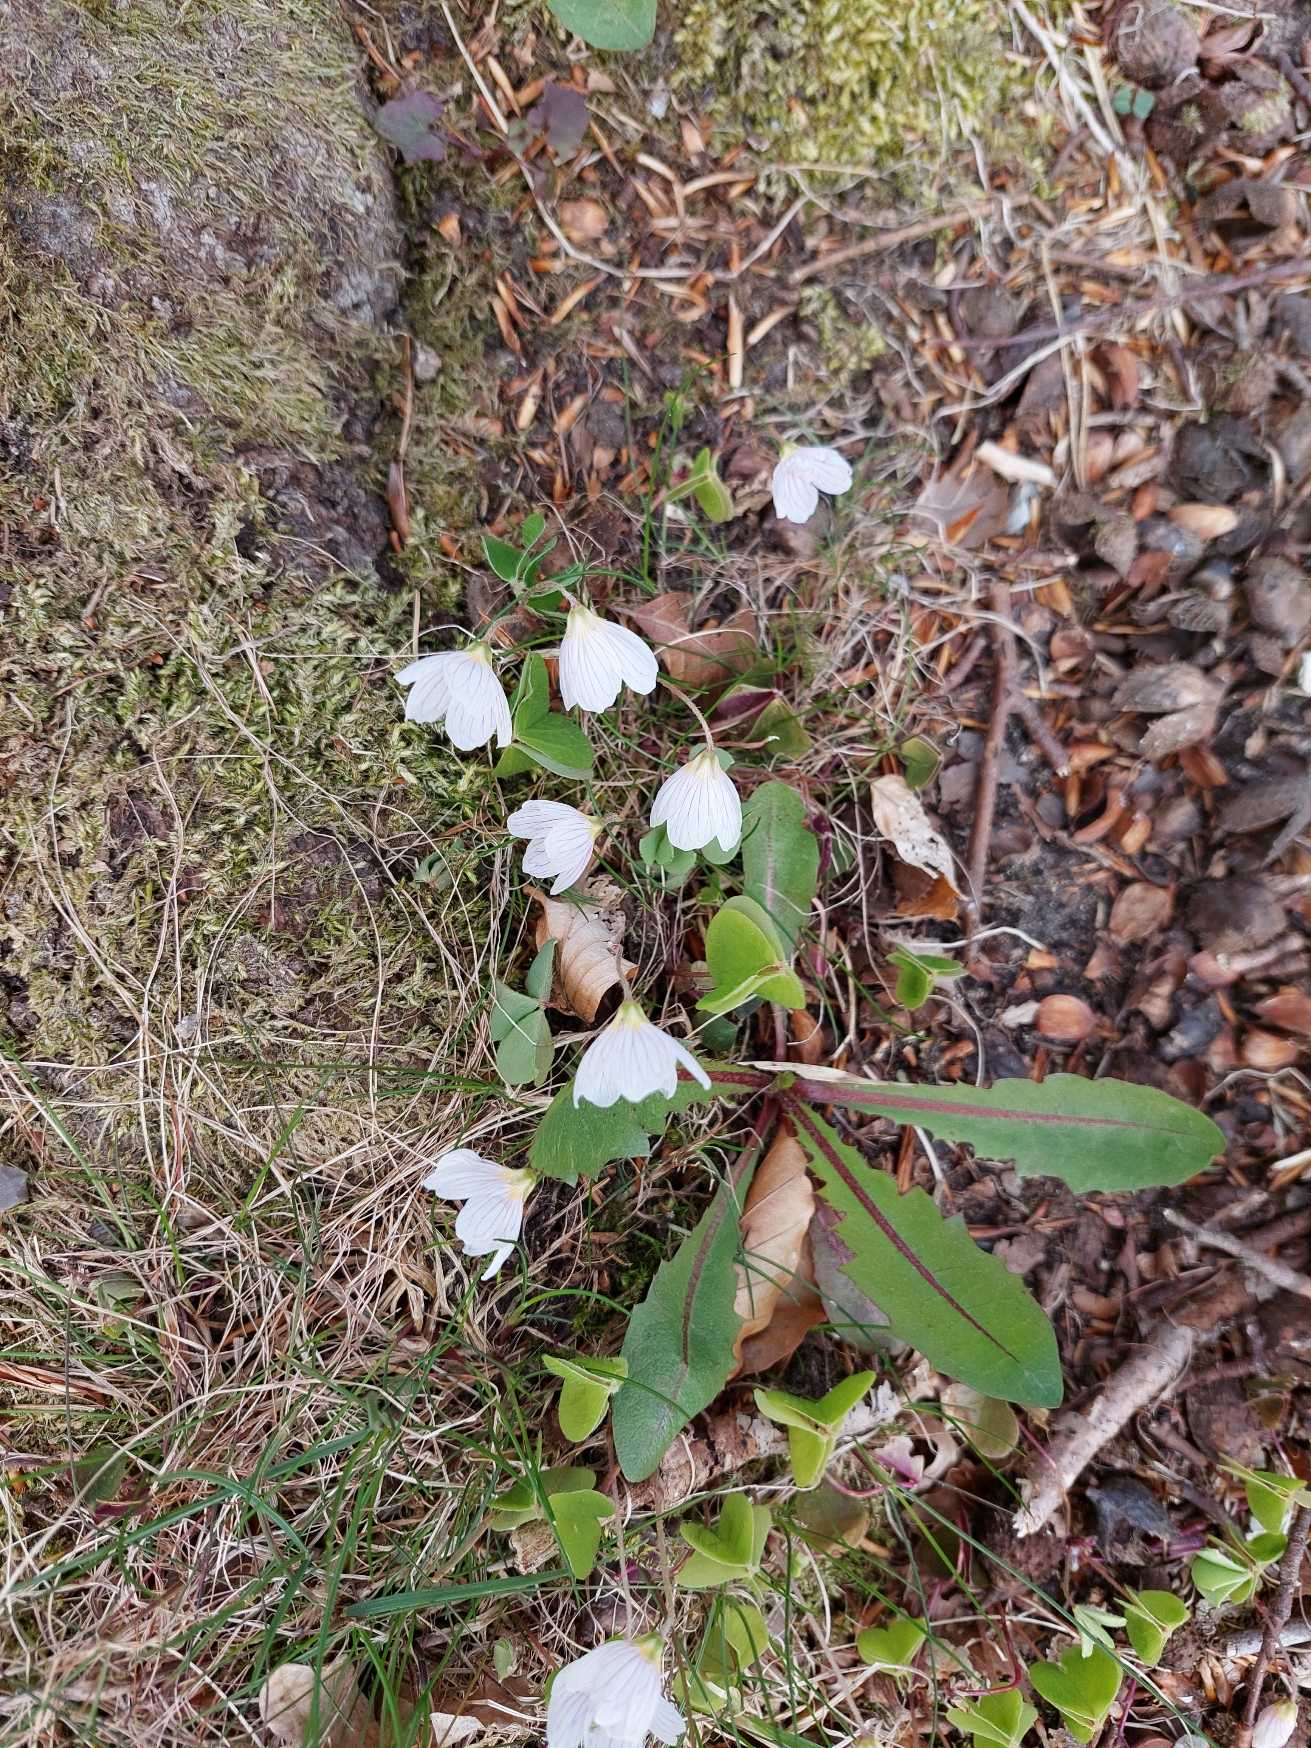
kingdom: Plantae
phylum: Tracheophyta
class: Magnoliopsida
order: Oxalidales
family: Oxalidaceae
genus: Oxalis
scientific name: Oxalis acetosella
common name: Skovsyre
